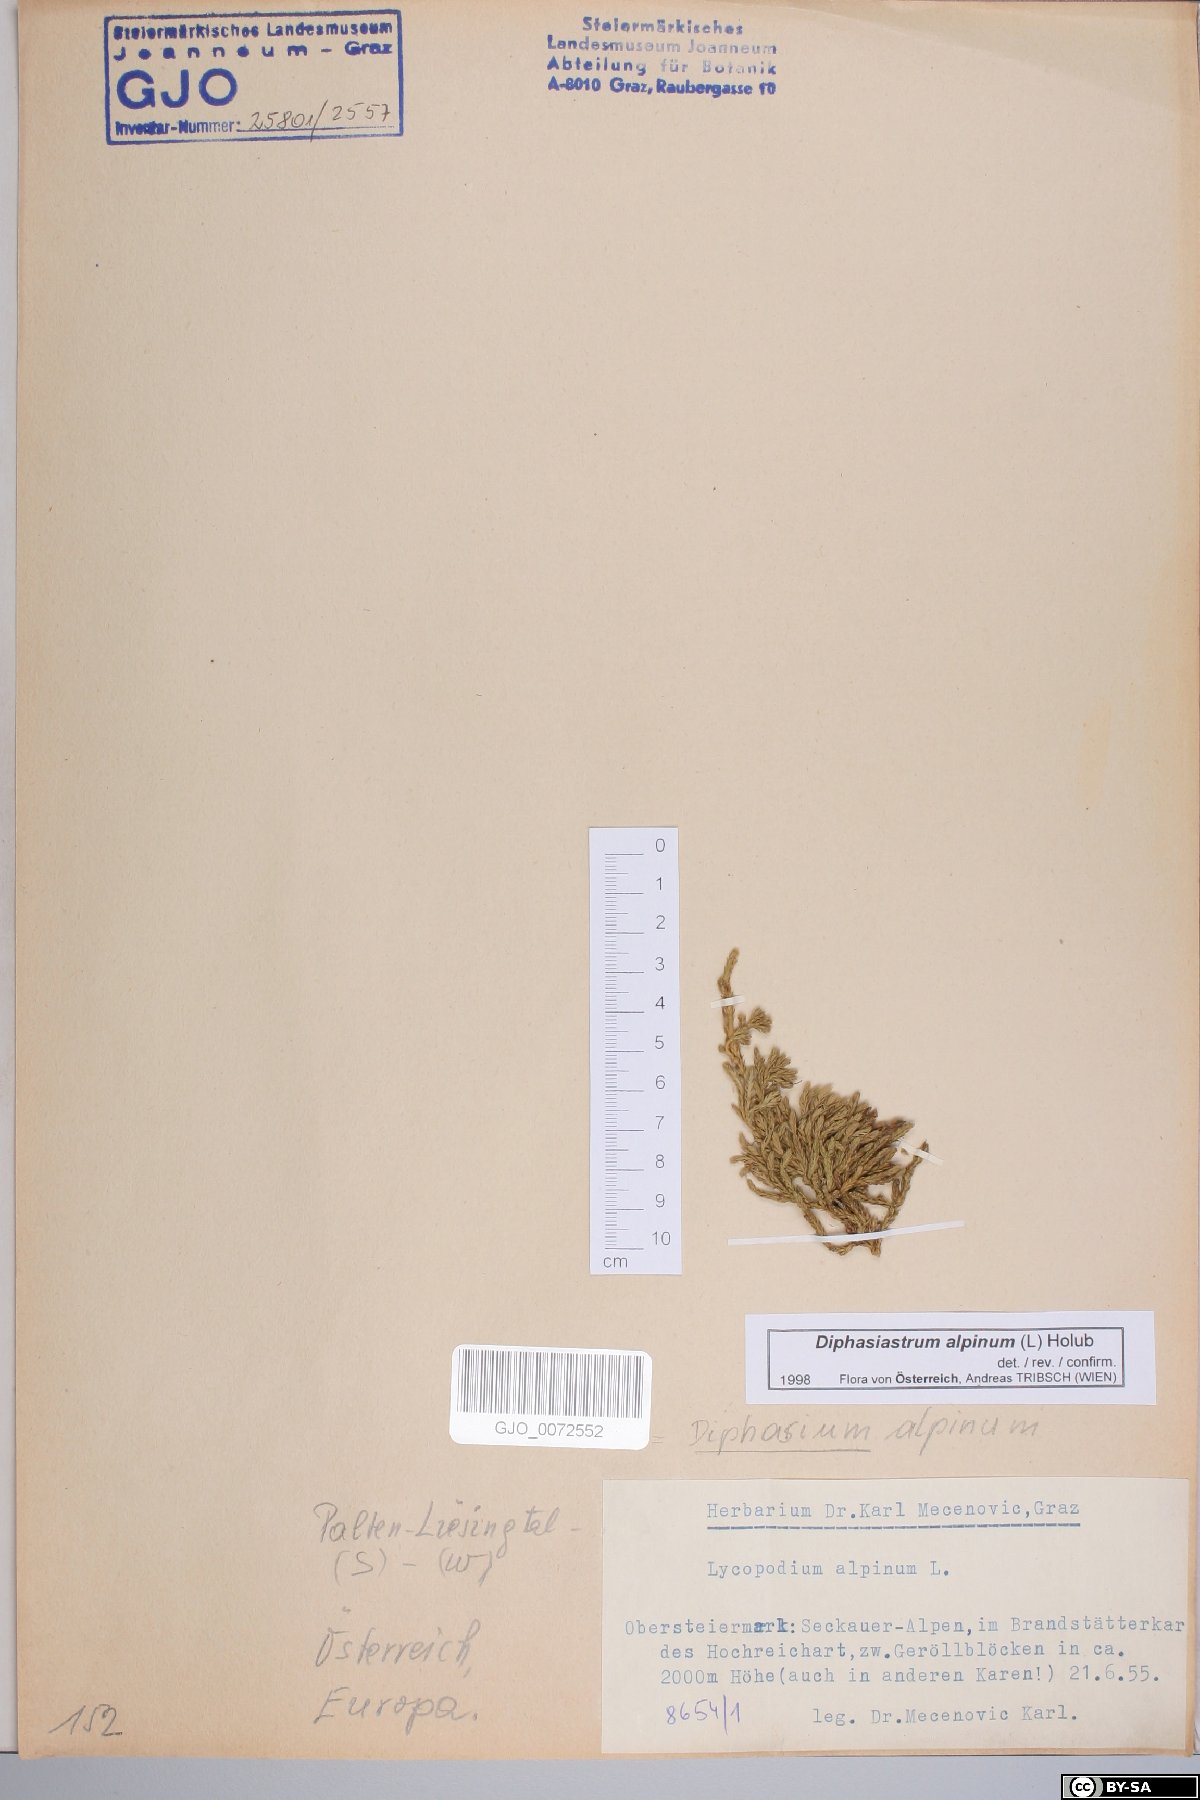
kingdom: Plantae
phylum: Tracheophyta
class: Lycopodiopsida
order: Lycopodiales
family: Lycopodiaceae
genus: Diphasiastrum
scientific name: Diphasiastrum alpinum
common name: Alpine clubmoss
